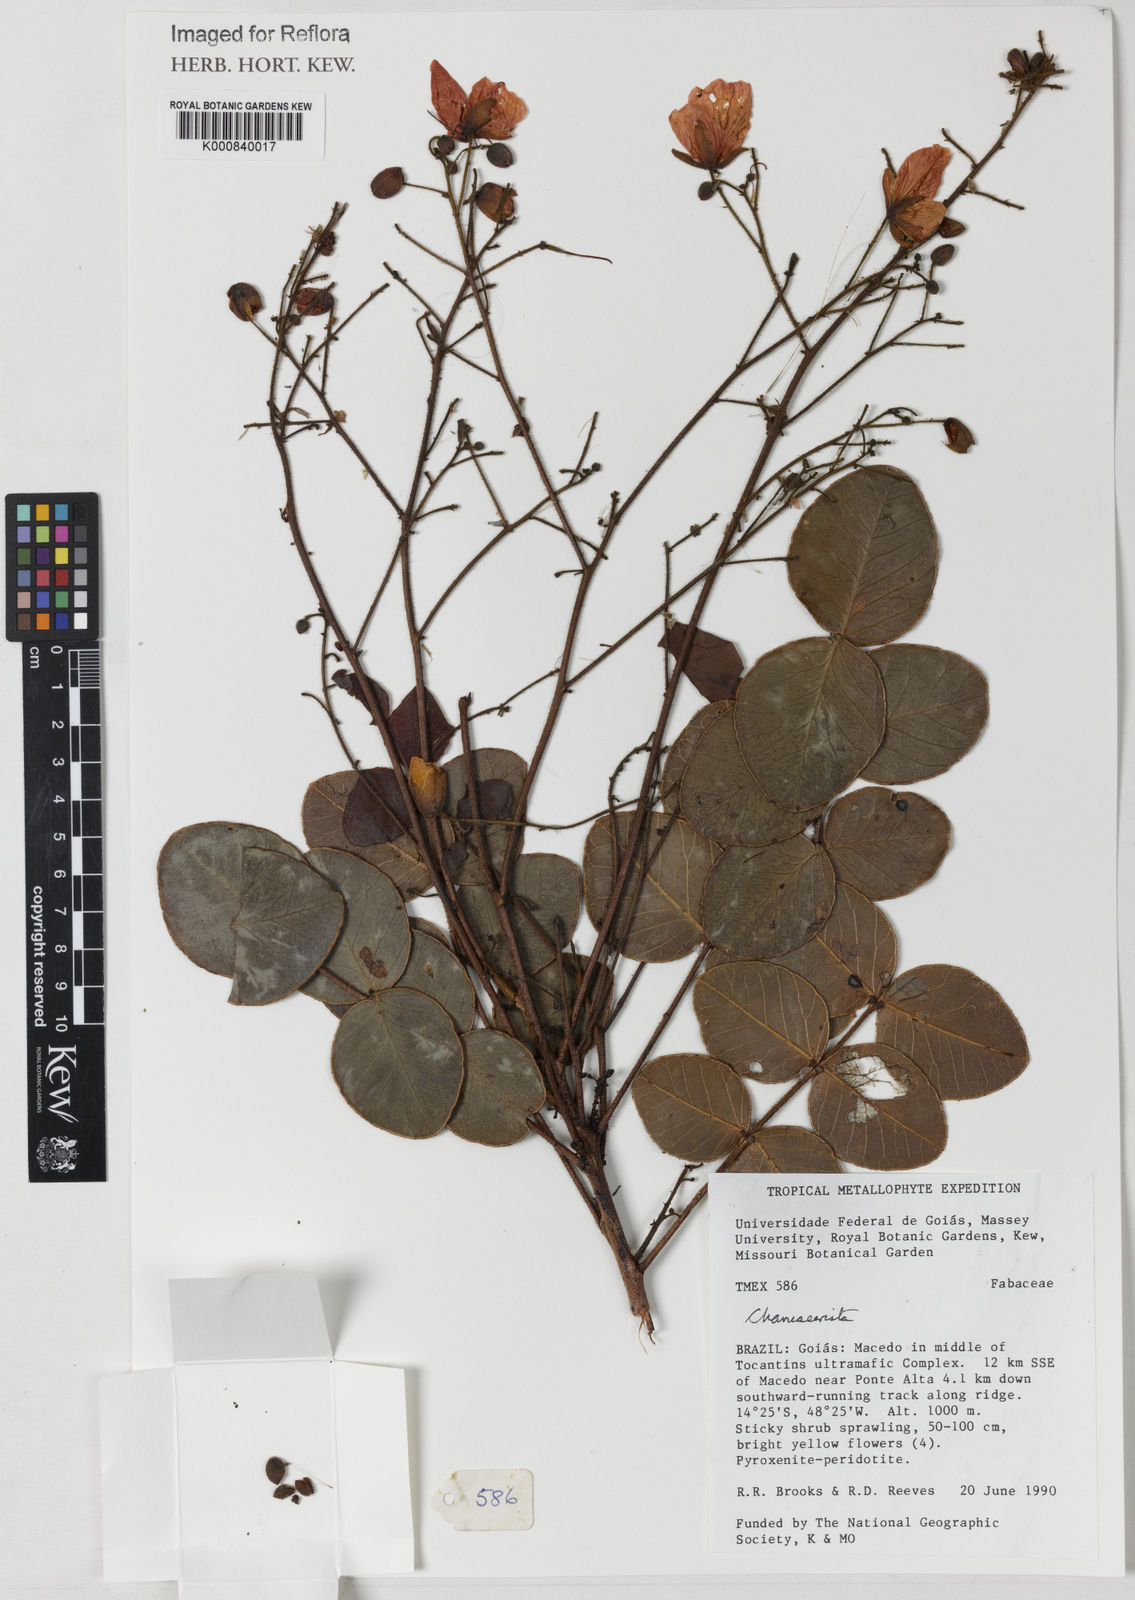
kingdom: Plantae
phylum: Tracheophyta
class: Magnoliopsida
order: Fabales
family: Fabaceae
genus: Chamaecrista
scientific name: Chamaecrista orbiculata
